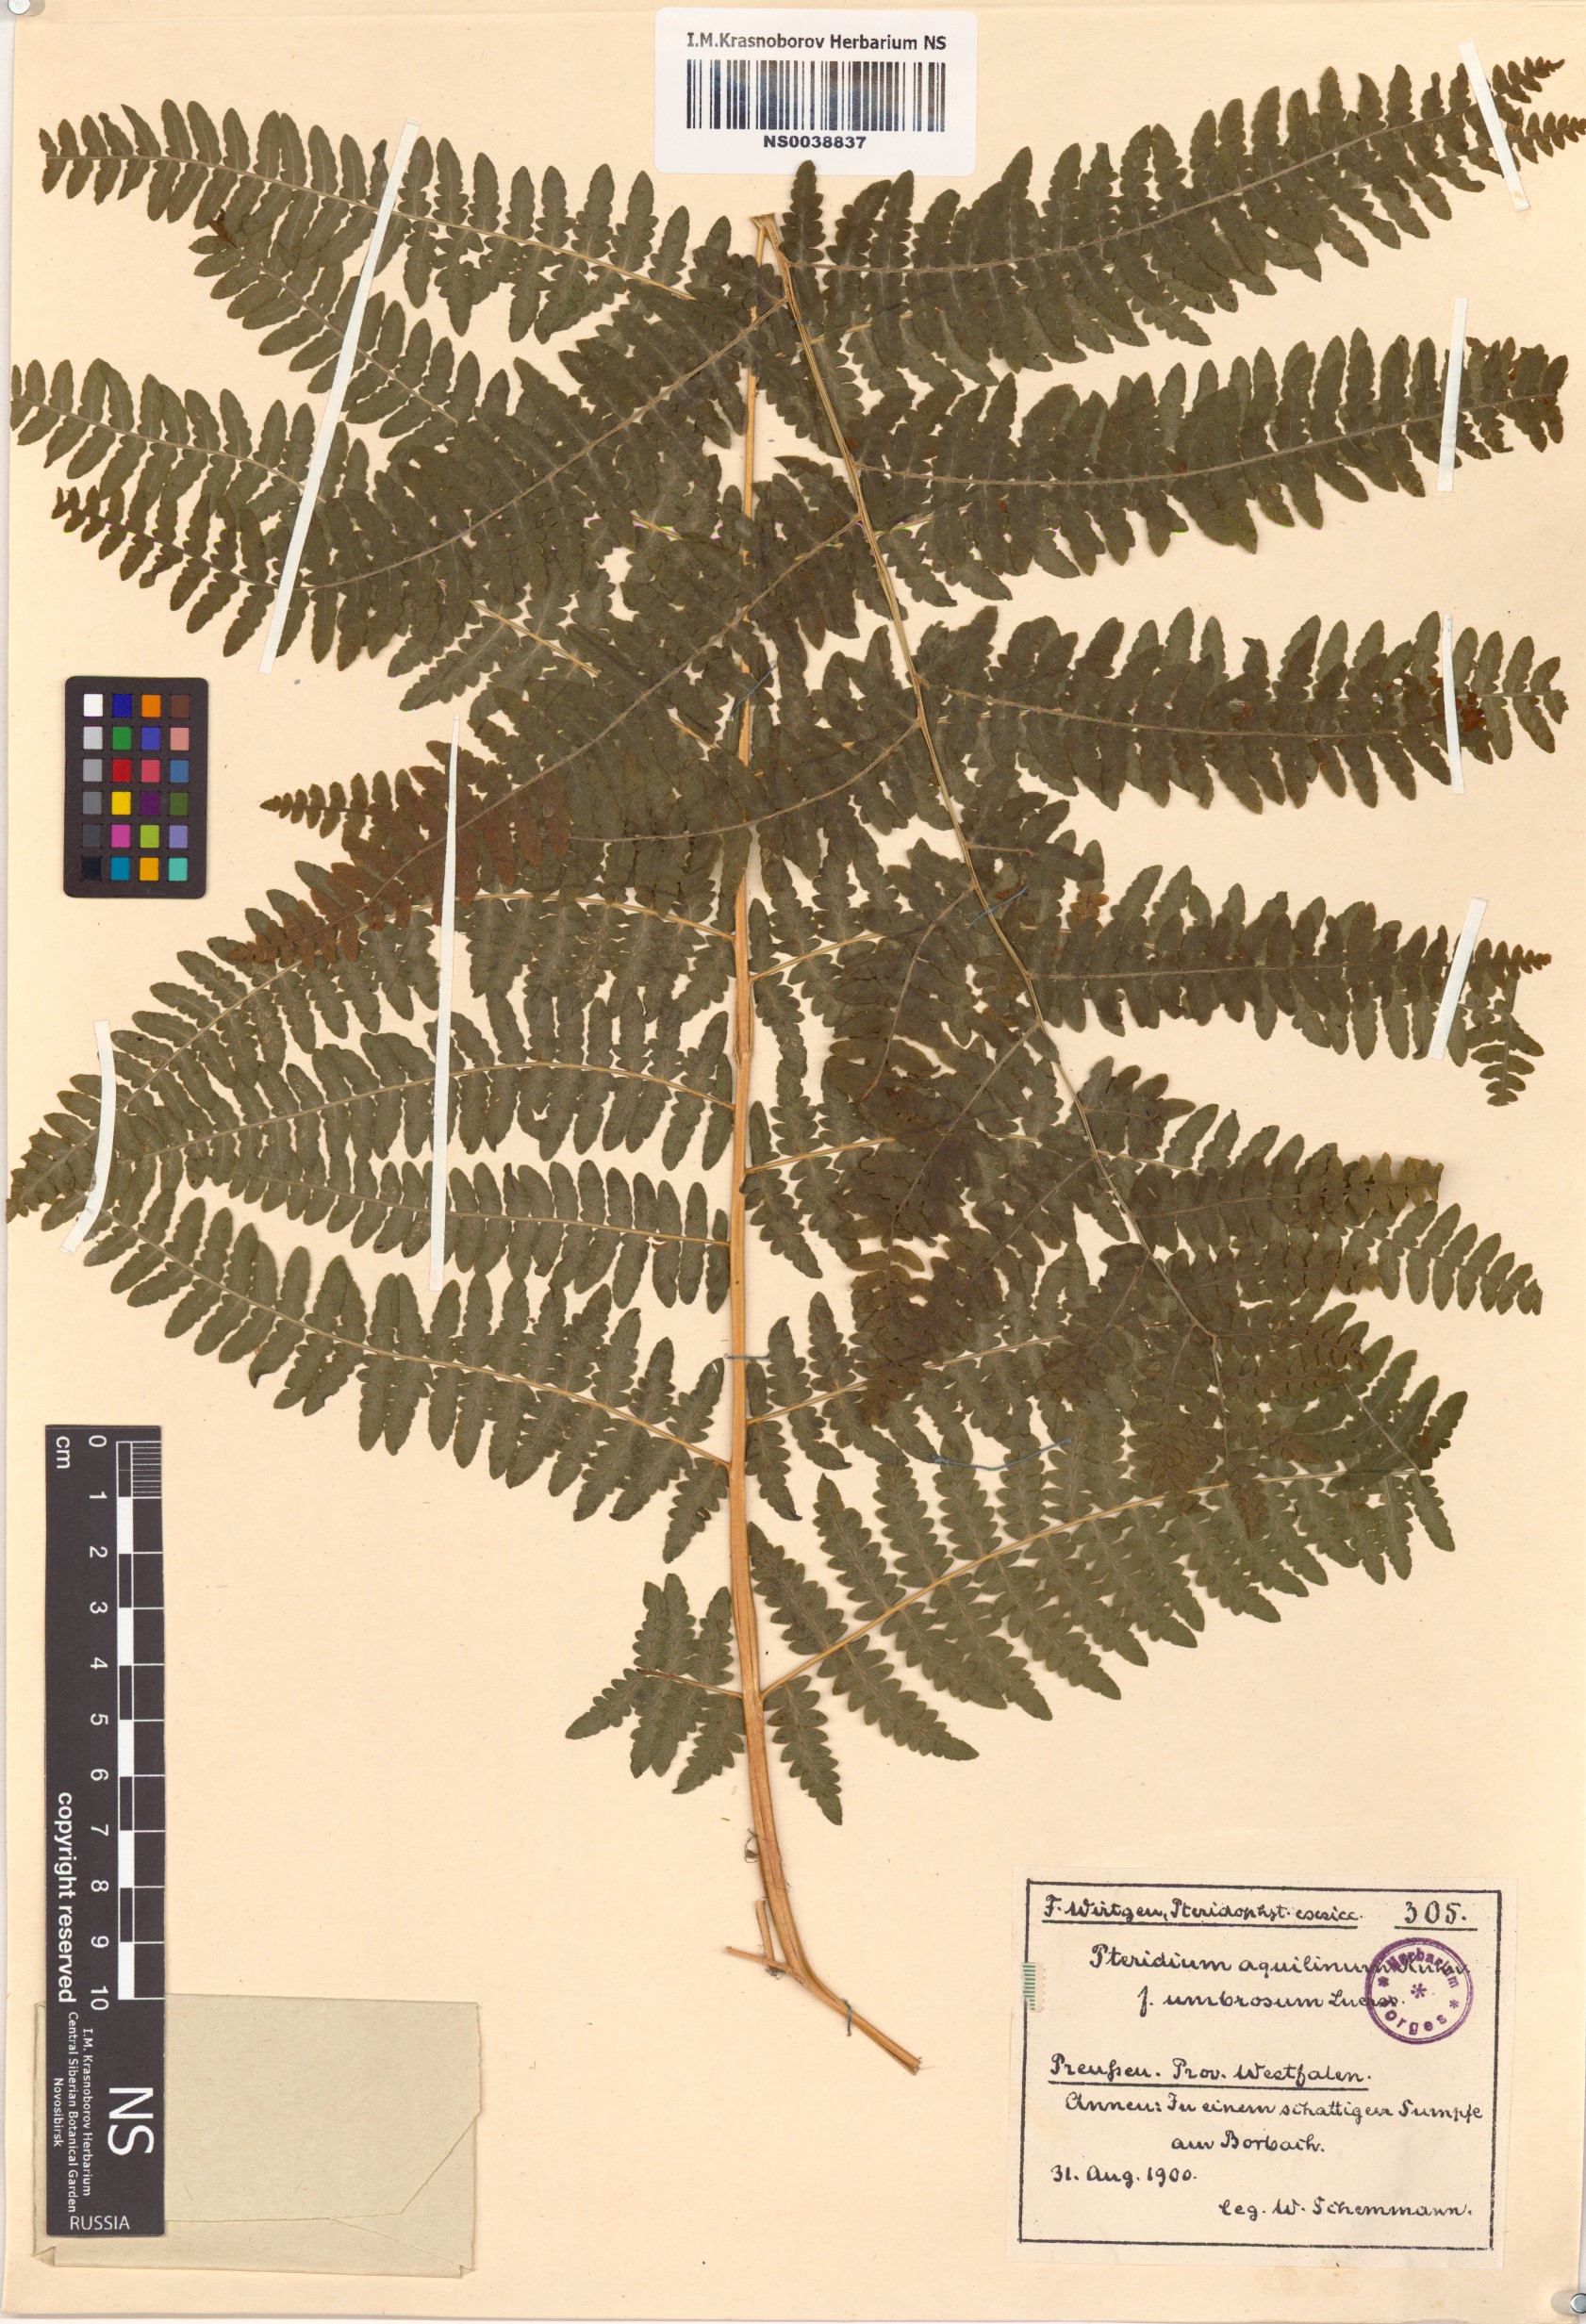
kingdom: Plantae
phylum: Tracheophyta
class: Polypodiopsida
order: Polypodiales
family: Dennstaedtiaceae
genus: Pteridium
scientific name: Pteridium aquilinum
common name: Bracken
